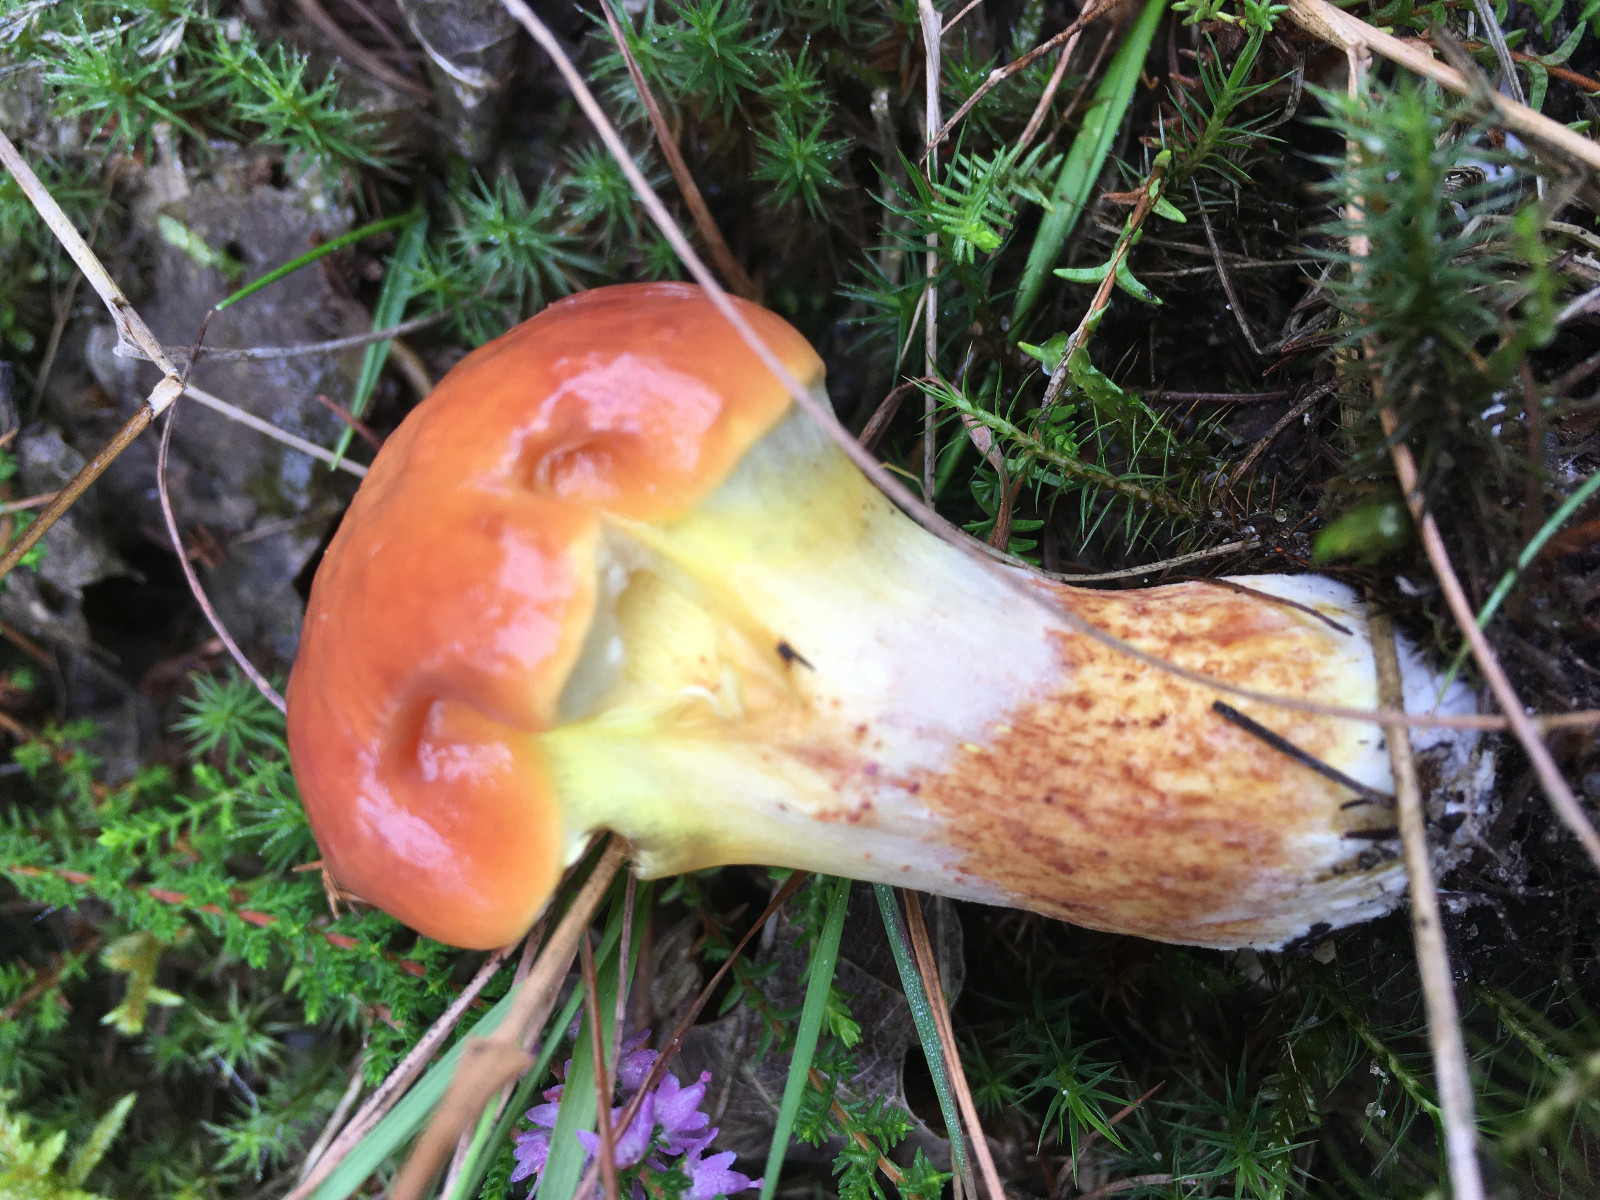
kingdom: Fungi
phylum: Basidiomycota
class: Agaricomycetes
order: Boletales
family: Suillaceae
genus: Suillus
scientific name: Suillus grevillei
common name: lærke-slimrørhat
